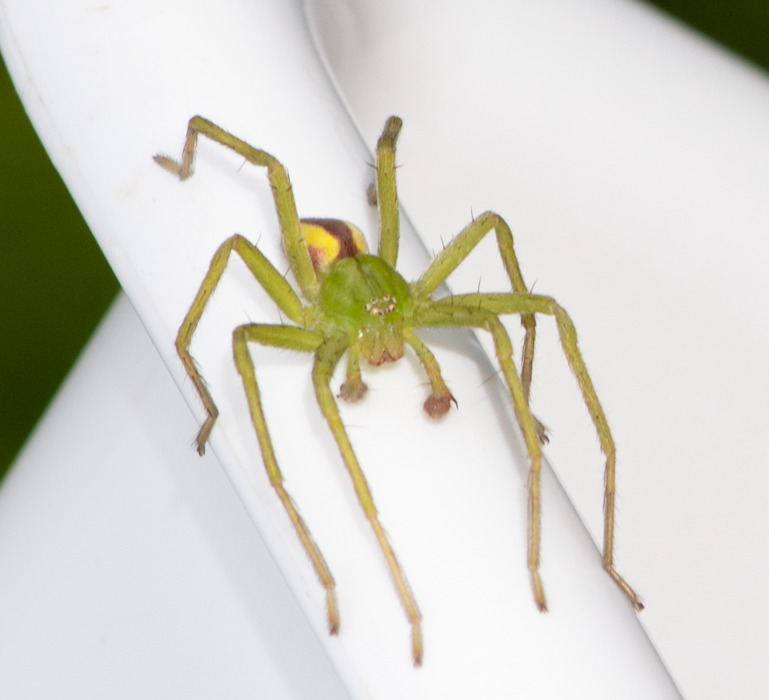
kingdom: Animalia
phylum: Arthropoda
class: Arachnida
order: Araneae
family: Sparassidae
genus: Micrommata
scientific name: Micrommata virescens
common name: Smaragdedderkop
